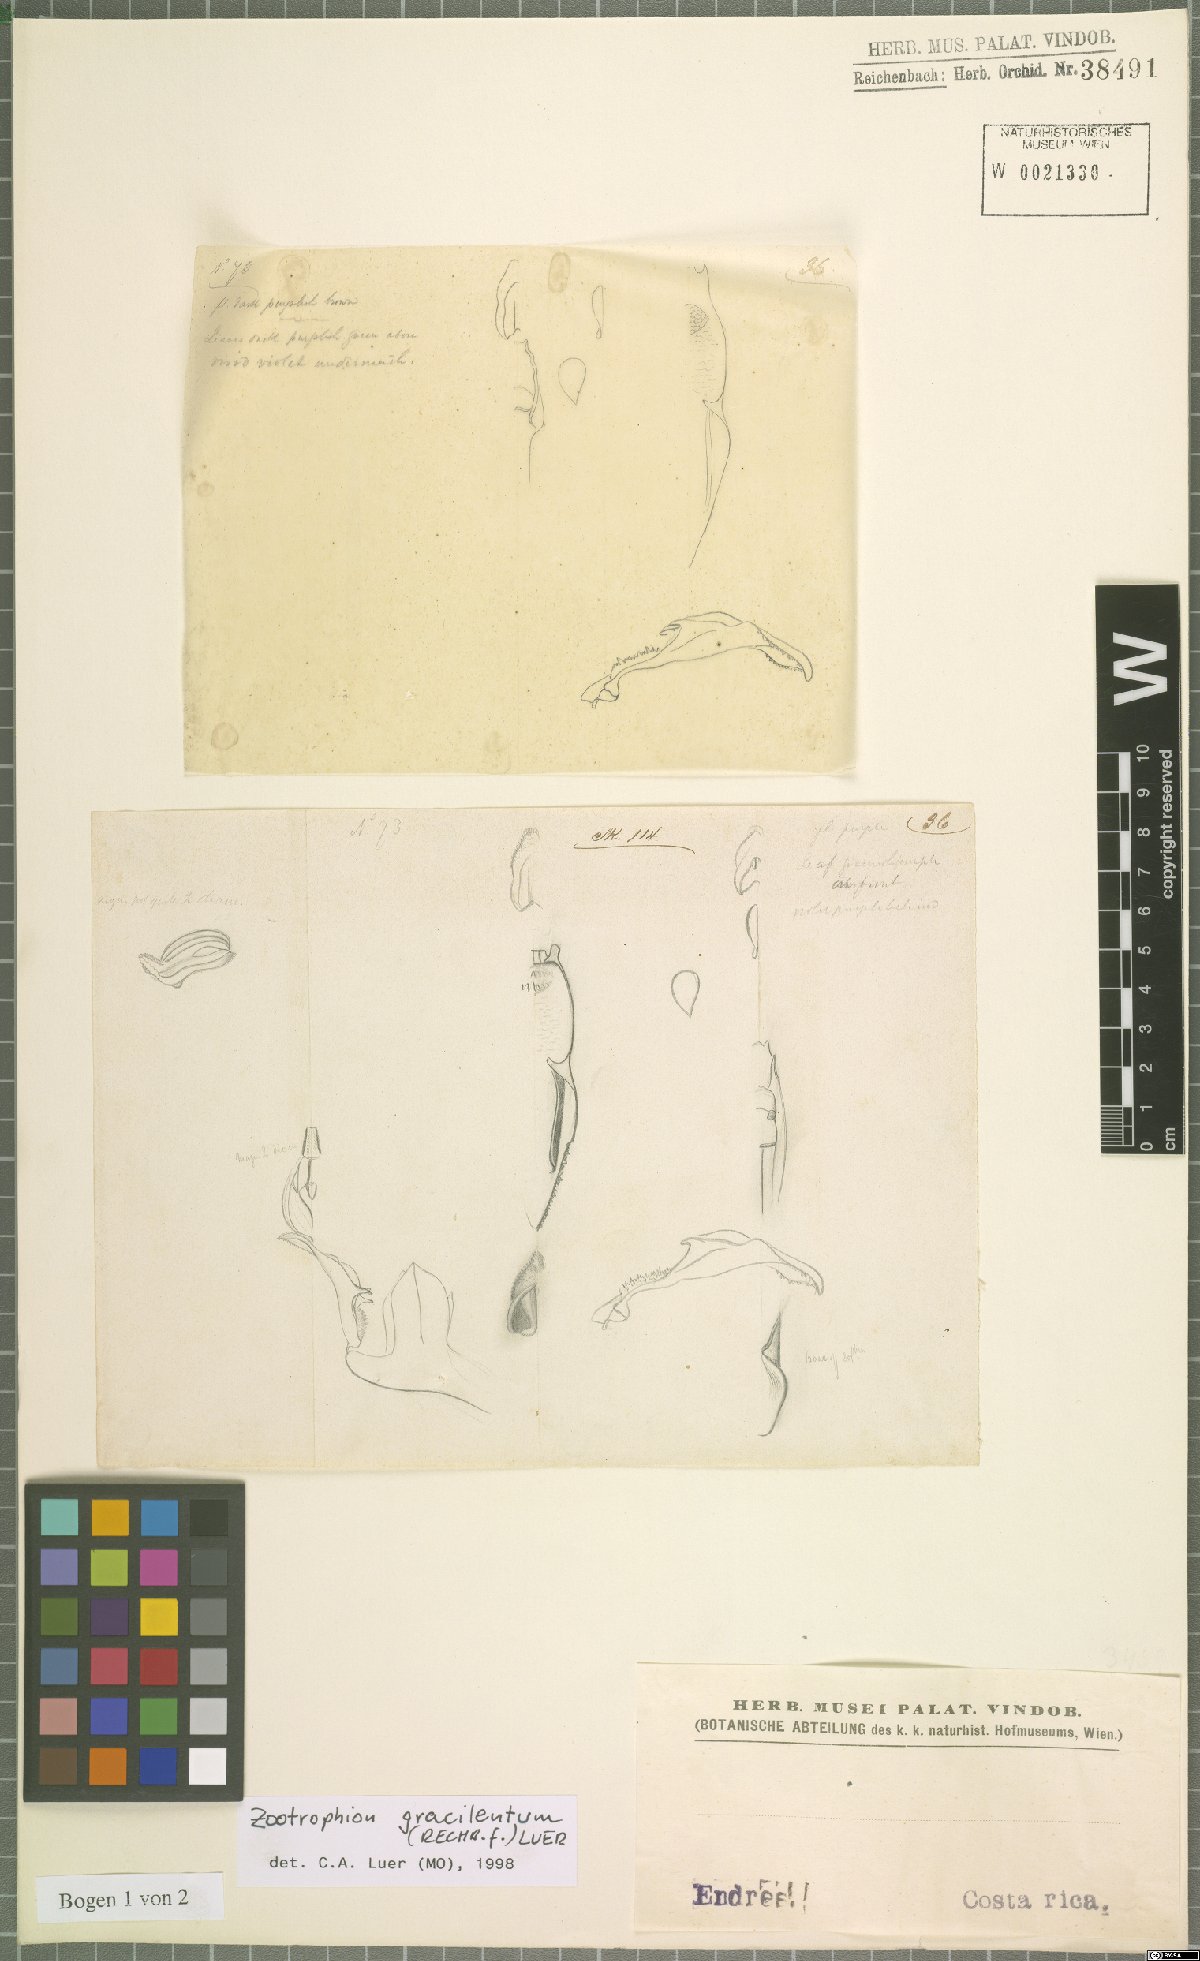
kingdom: Plantae
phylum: Tracheophyta
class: Liliopsida
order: Asparagales
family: Orchidaceae
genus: Zootrophion
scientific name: Zootrophion gracilentum
